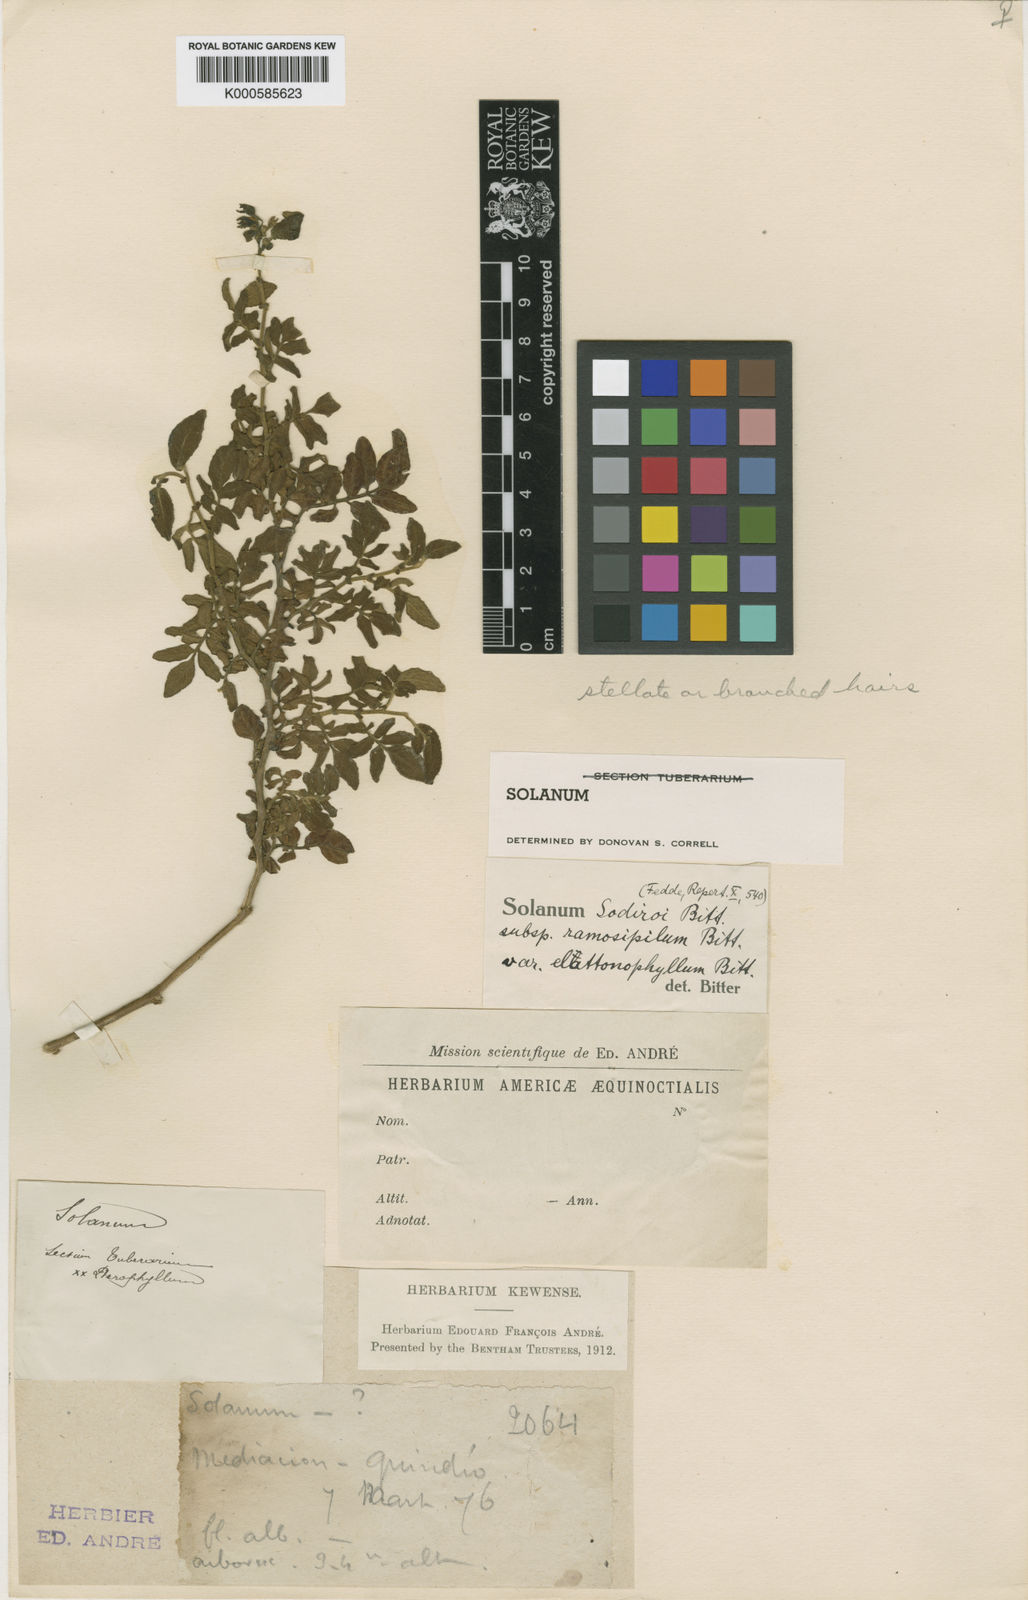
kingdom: Plantae
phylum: Tracheophyta
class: Magnoliopsida
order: Solanales
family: Solanaceae
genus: Solanum
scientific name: Solanum sodiroi
